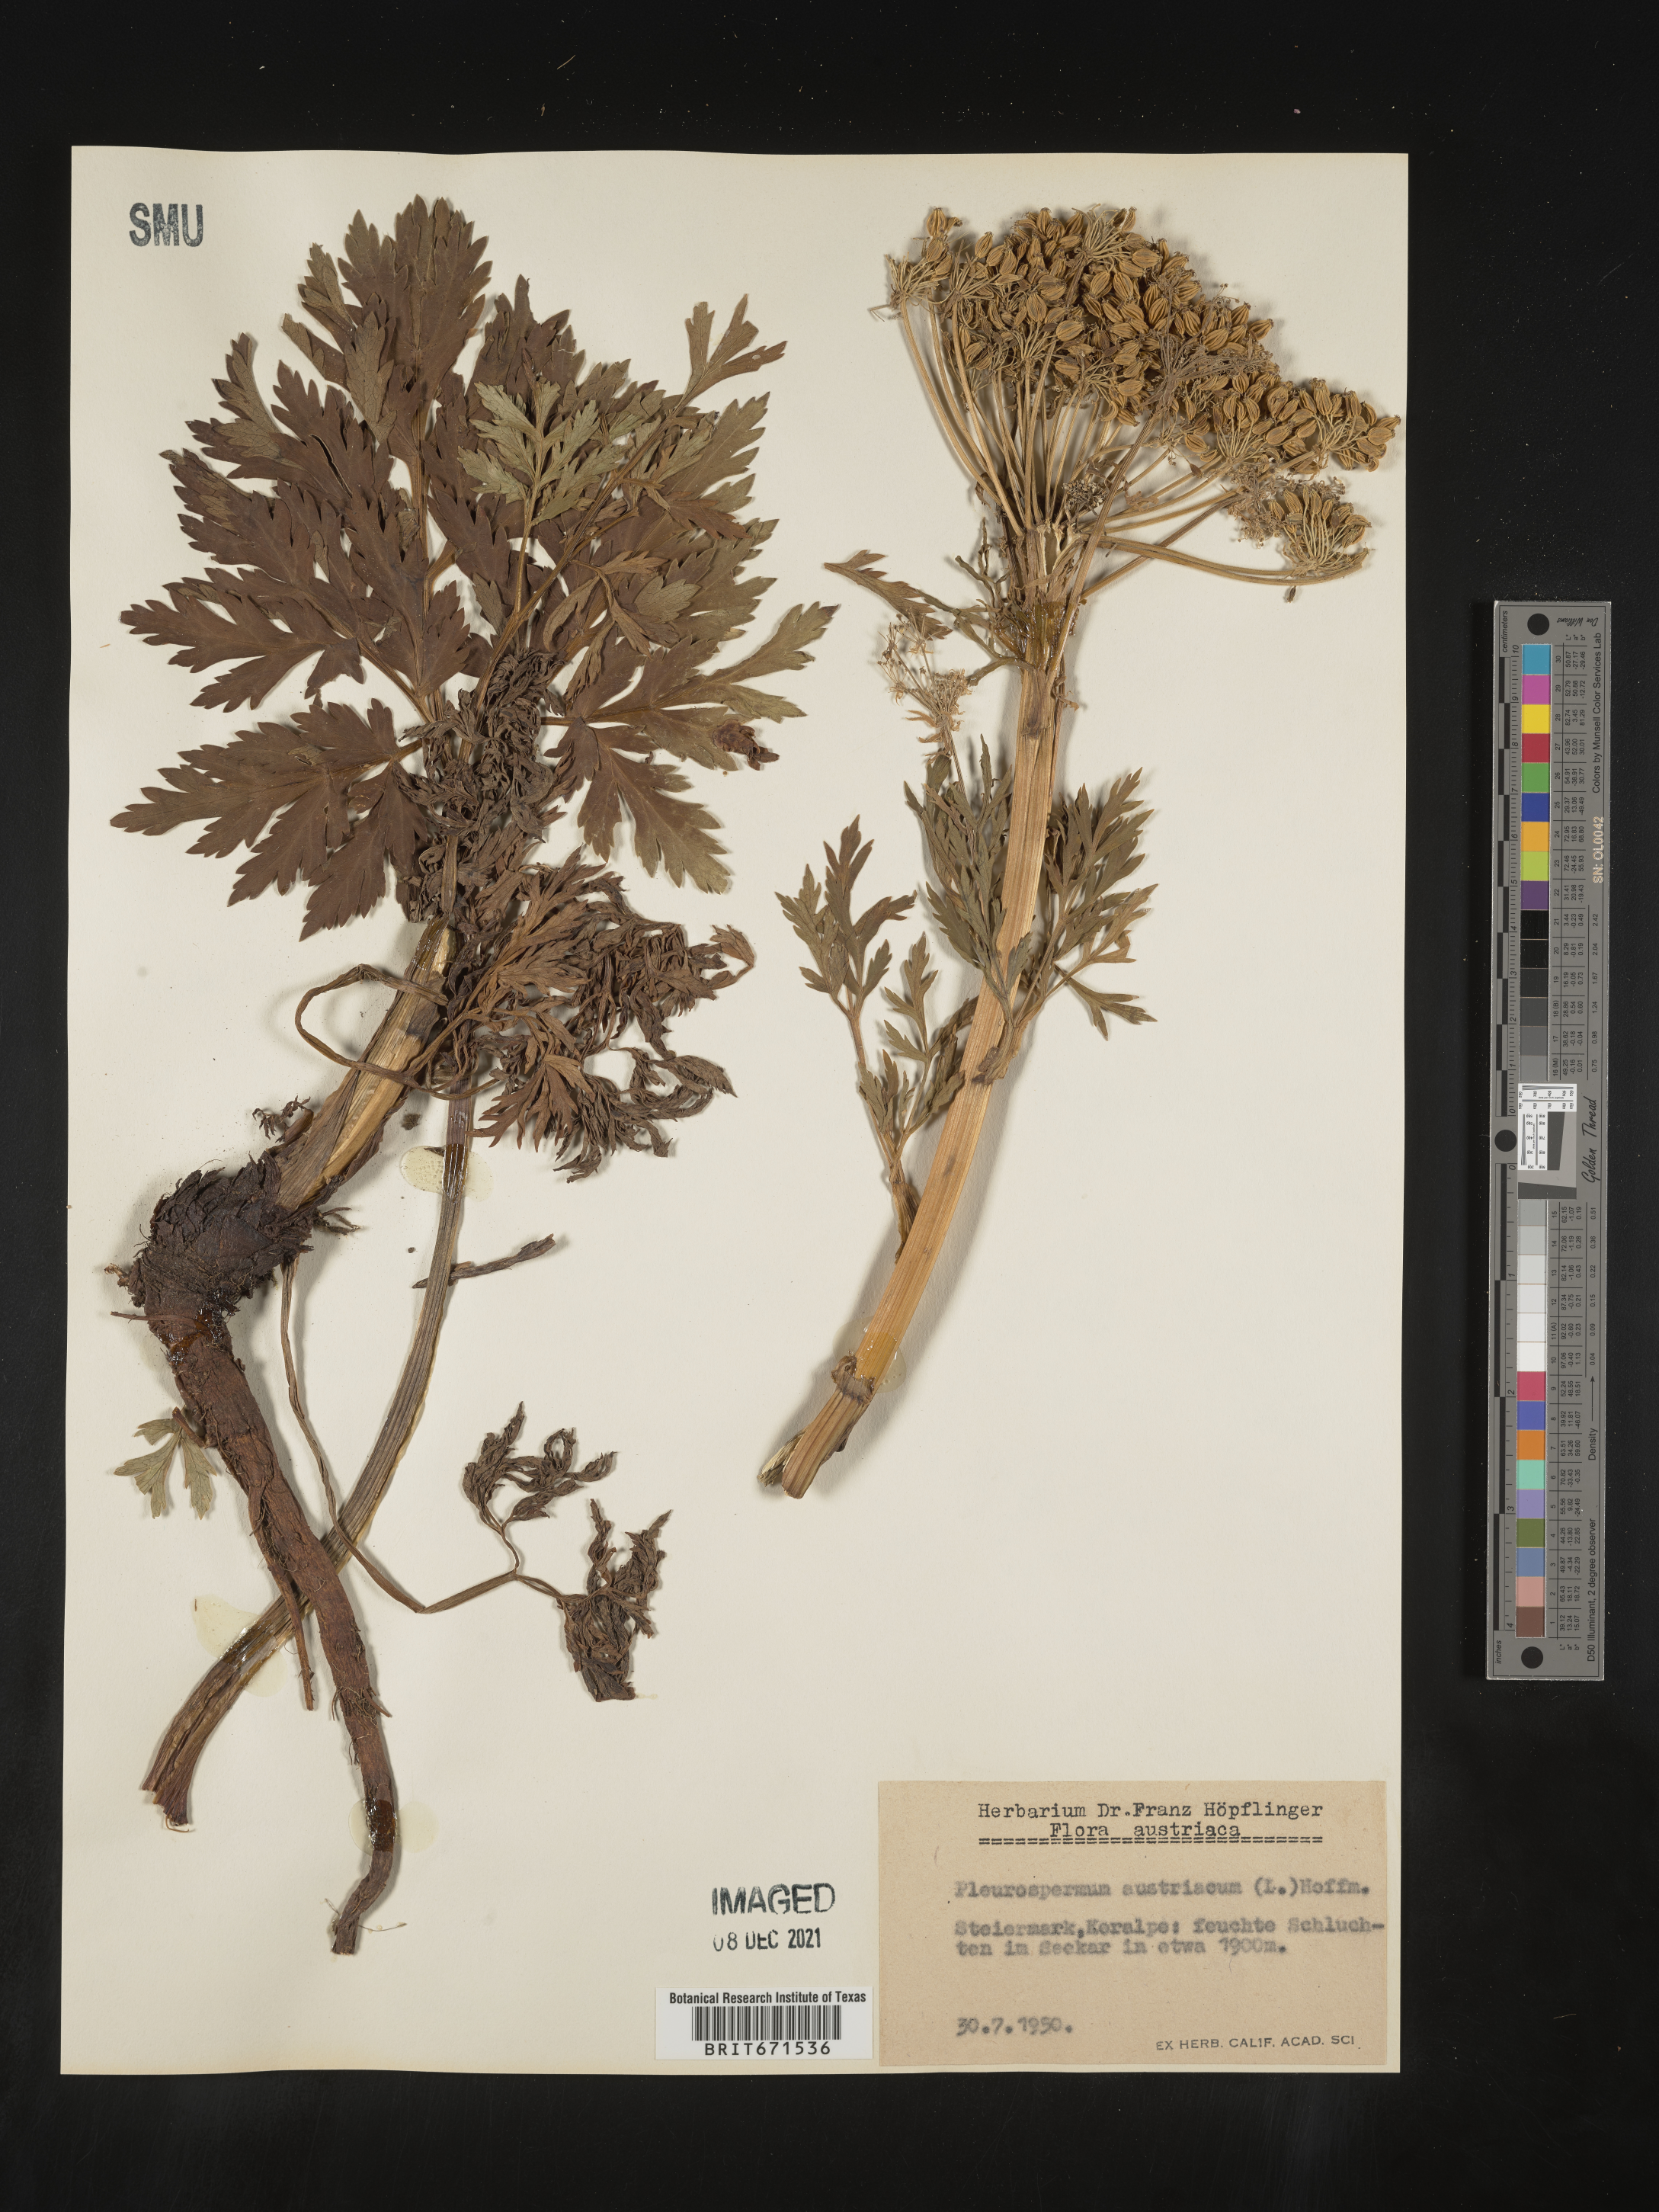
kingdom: Plantae
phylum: Tracheophyta
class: Magnoliopsida
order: Apiales
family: Apiaceae
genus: Pleurospermum
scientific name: Pleurospermum
